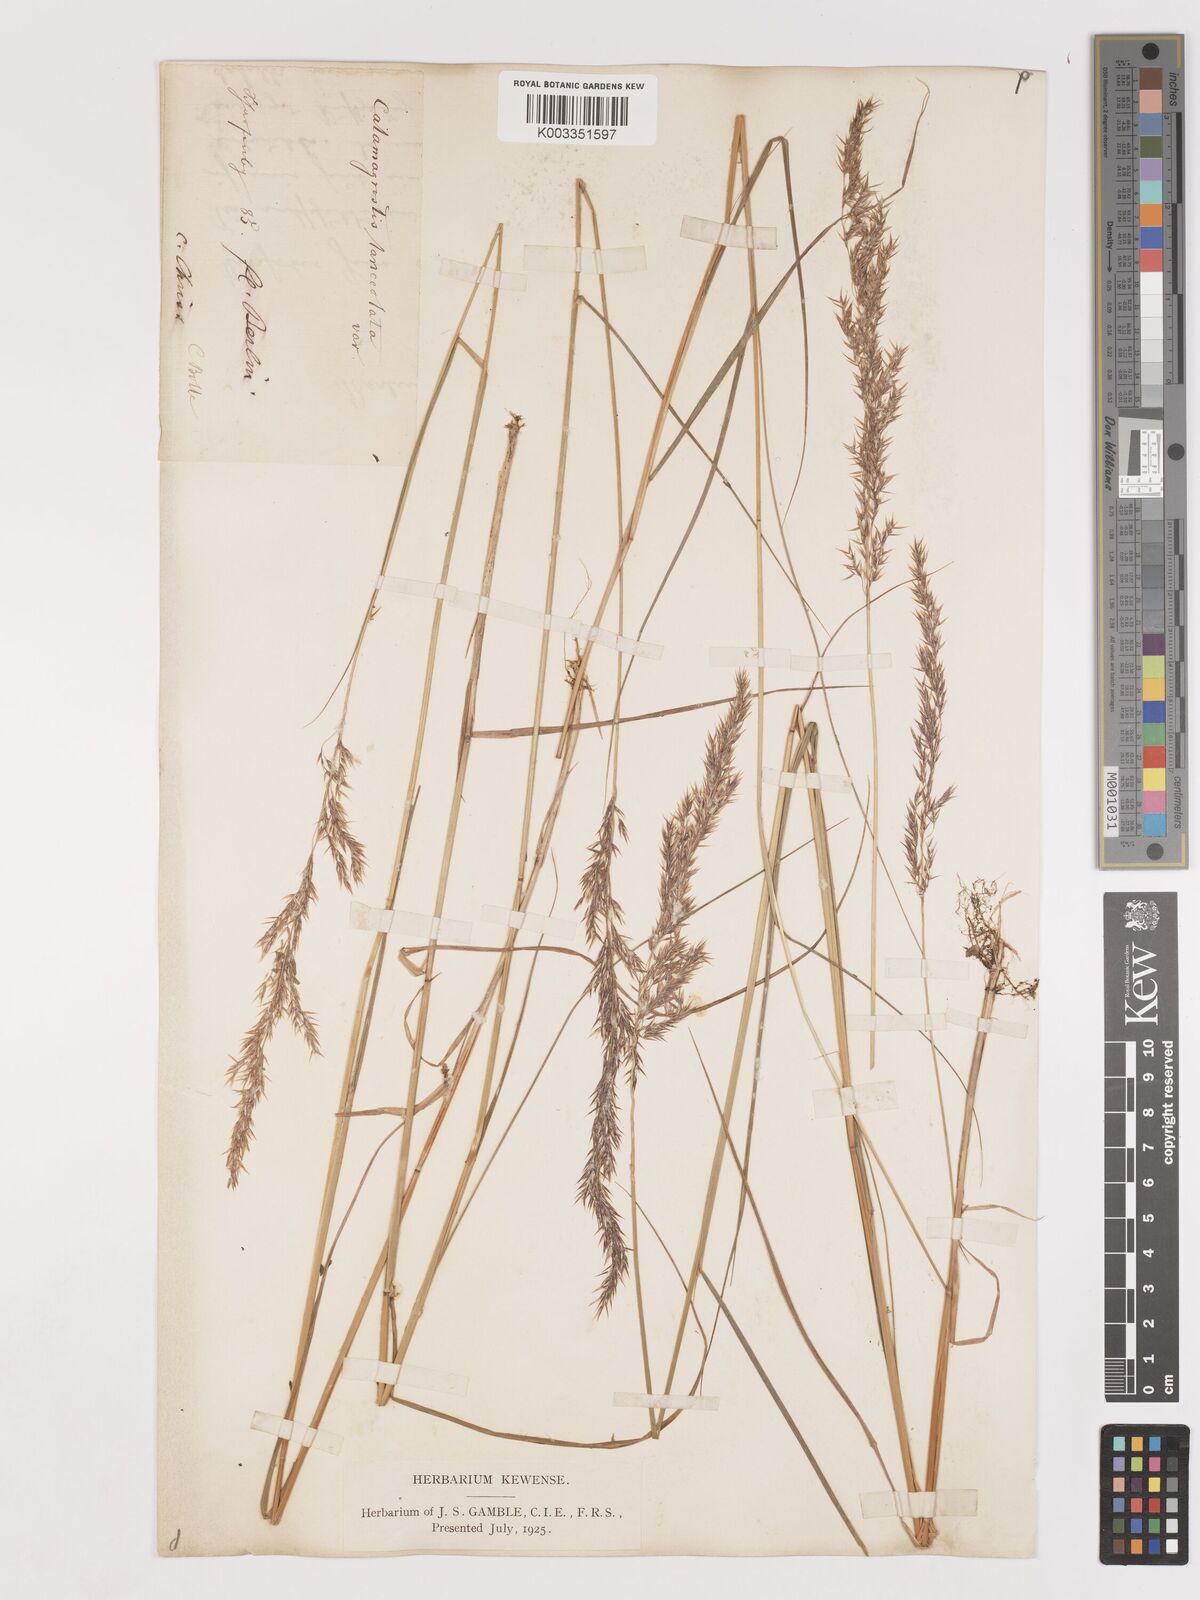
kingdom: Plantae
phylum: Tracheophyta
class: Liliopsida
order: Poales
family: Poaceae
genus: Calamagrostis
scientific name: Calamagrostis canescens
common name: Purple small-reed
